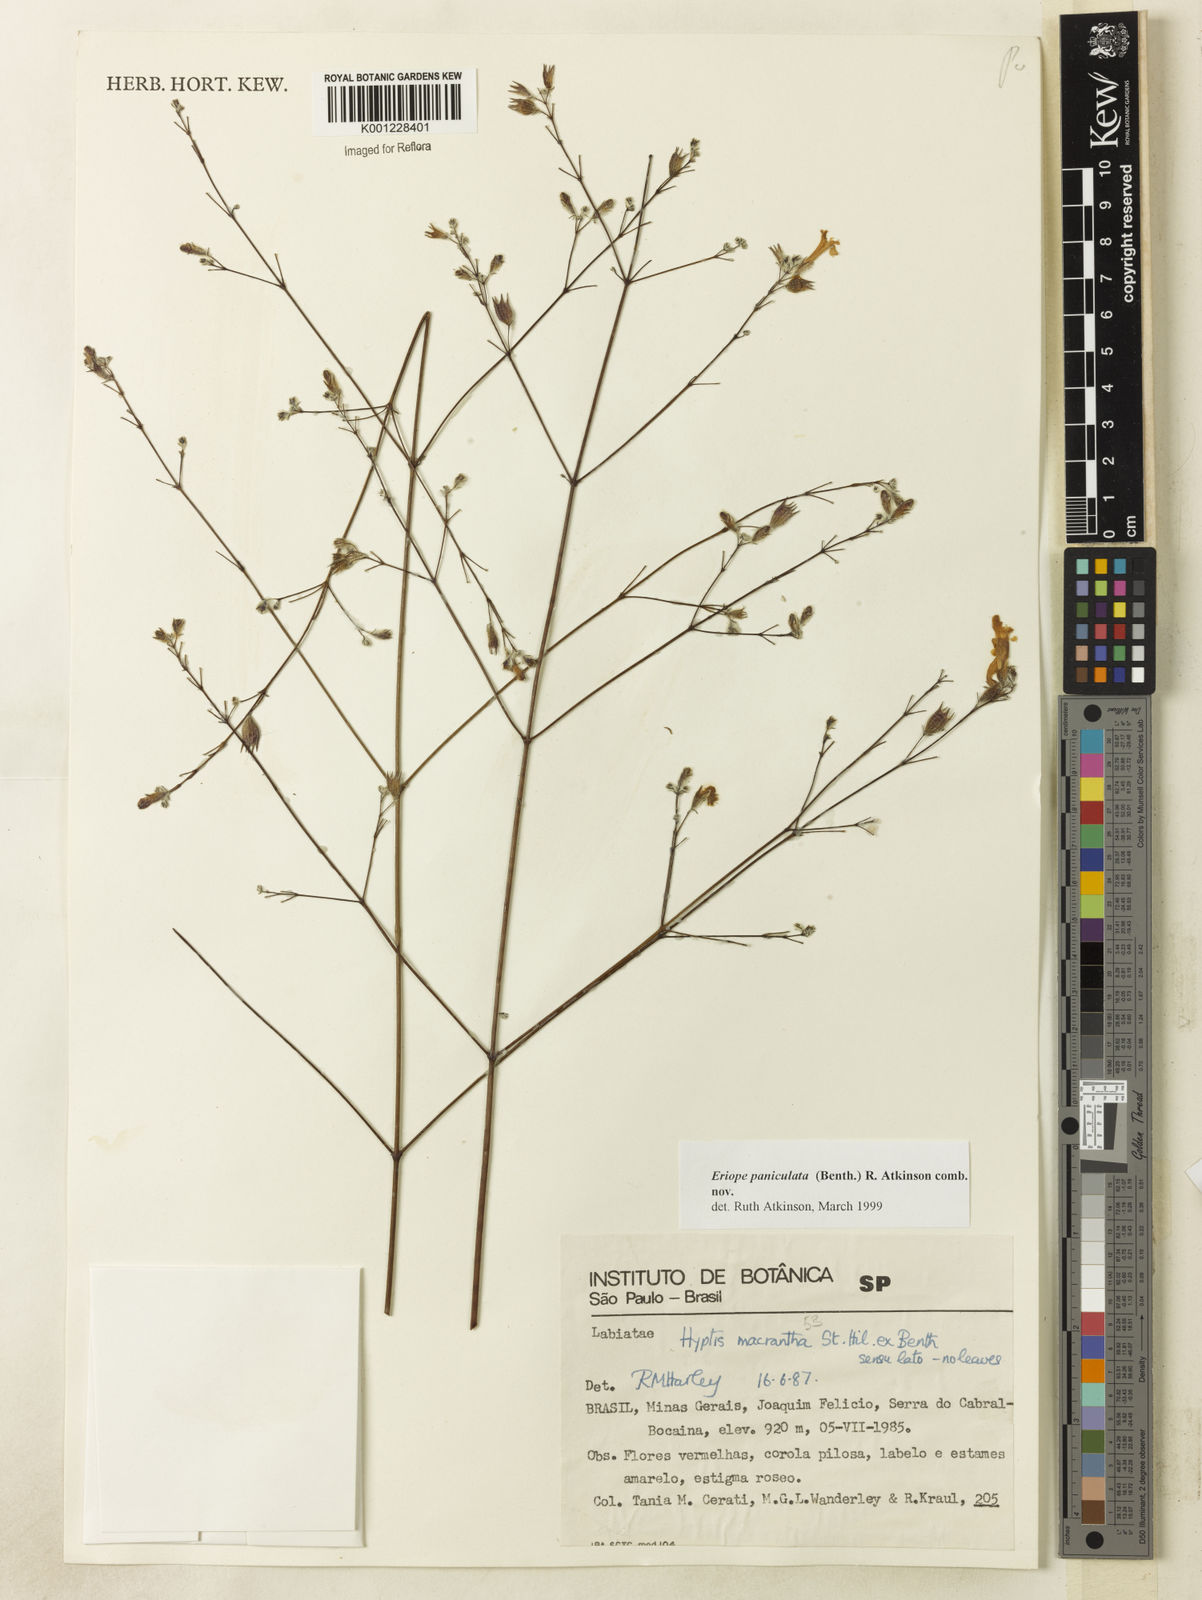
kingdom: Plantae
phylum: Tracheophyta
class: Magnoliopsida
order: Lamiales
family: Lamiaceae
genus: Hypenia
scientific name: Hypenia paniculata
